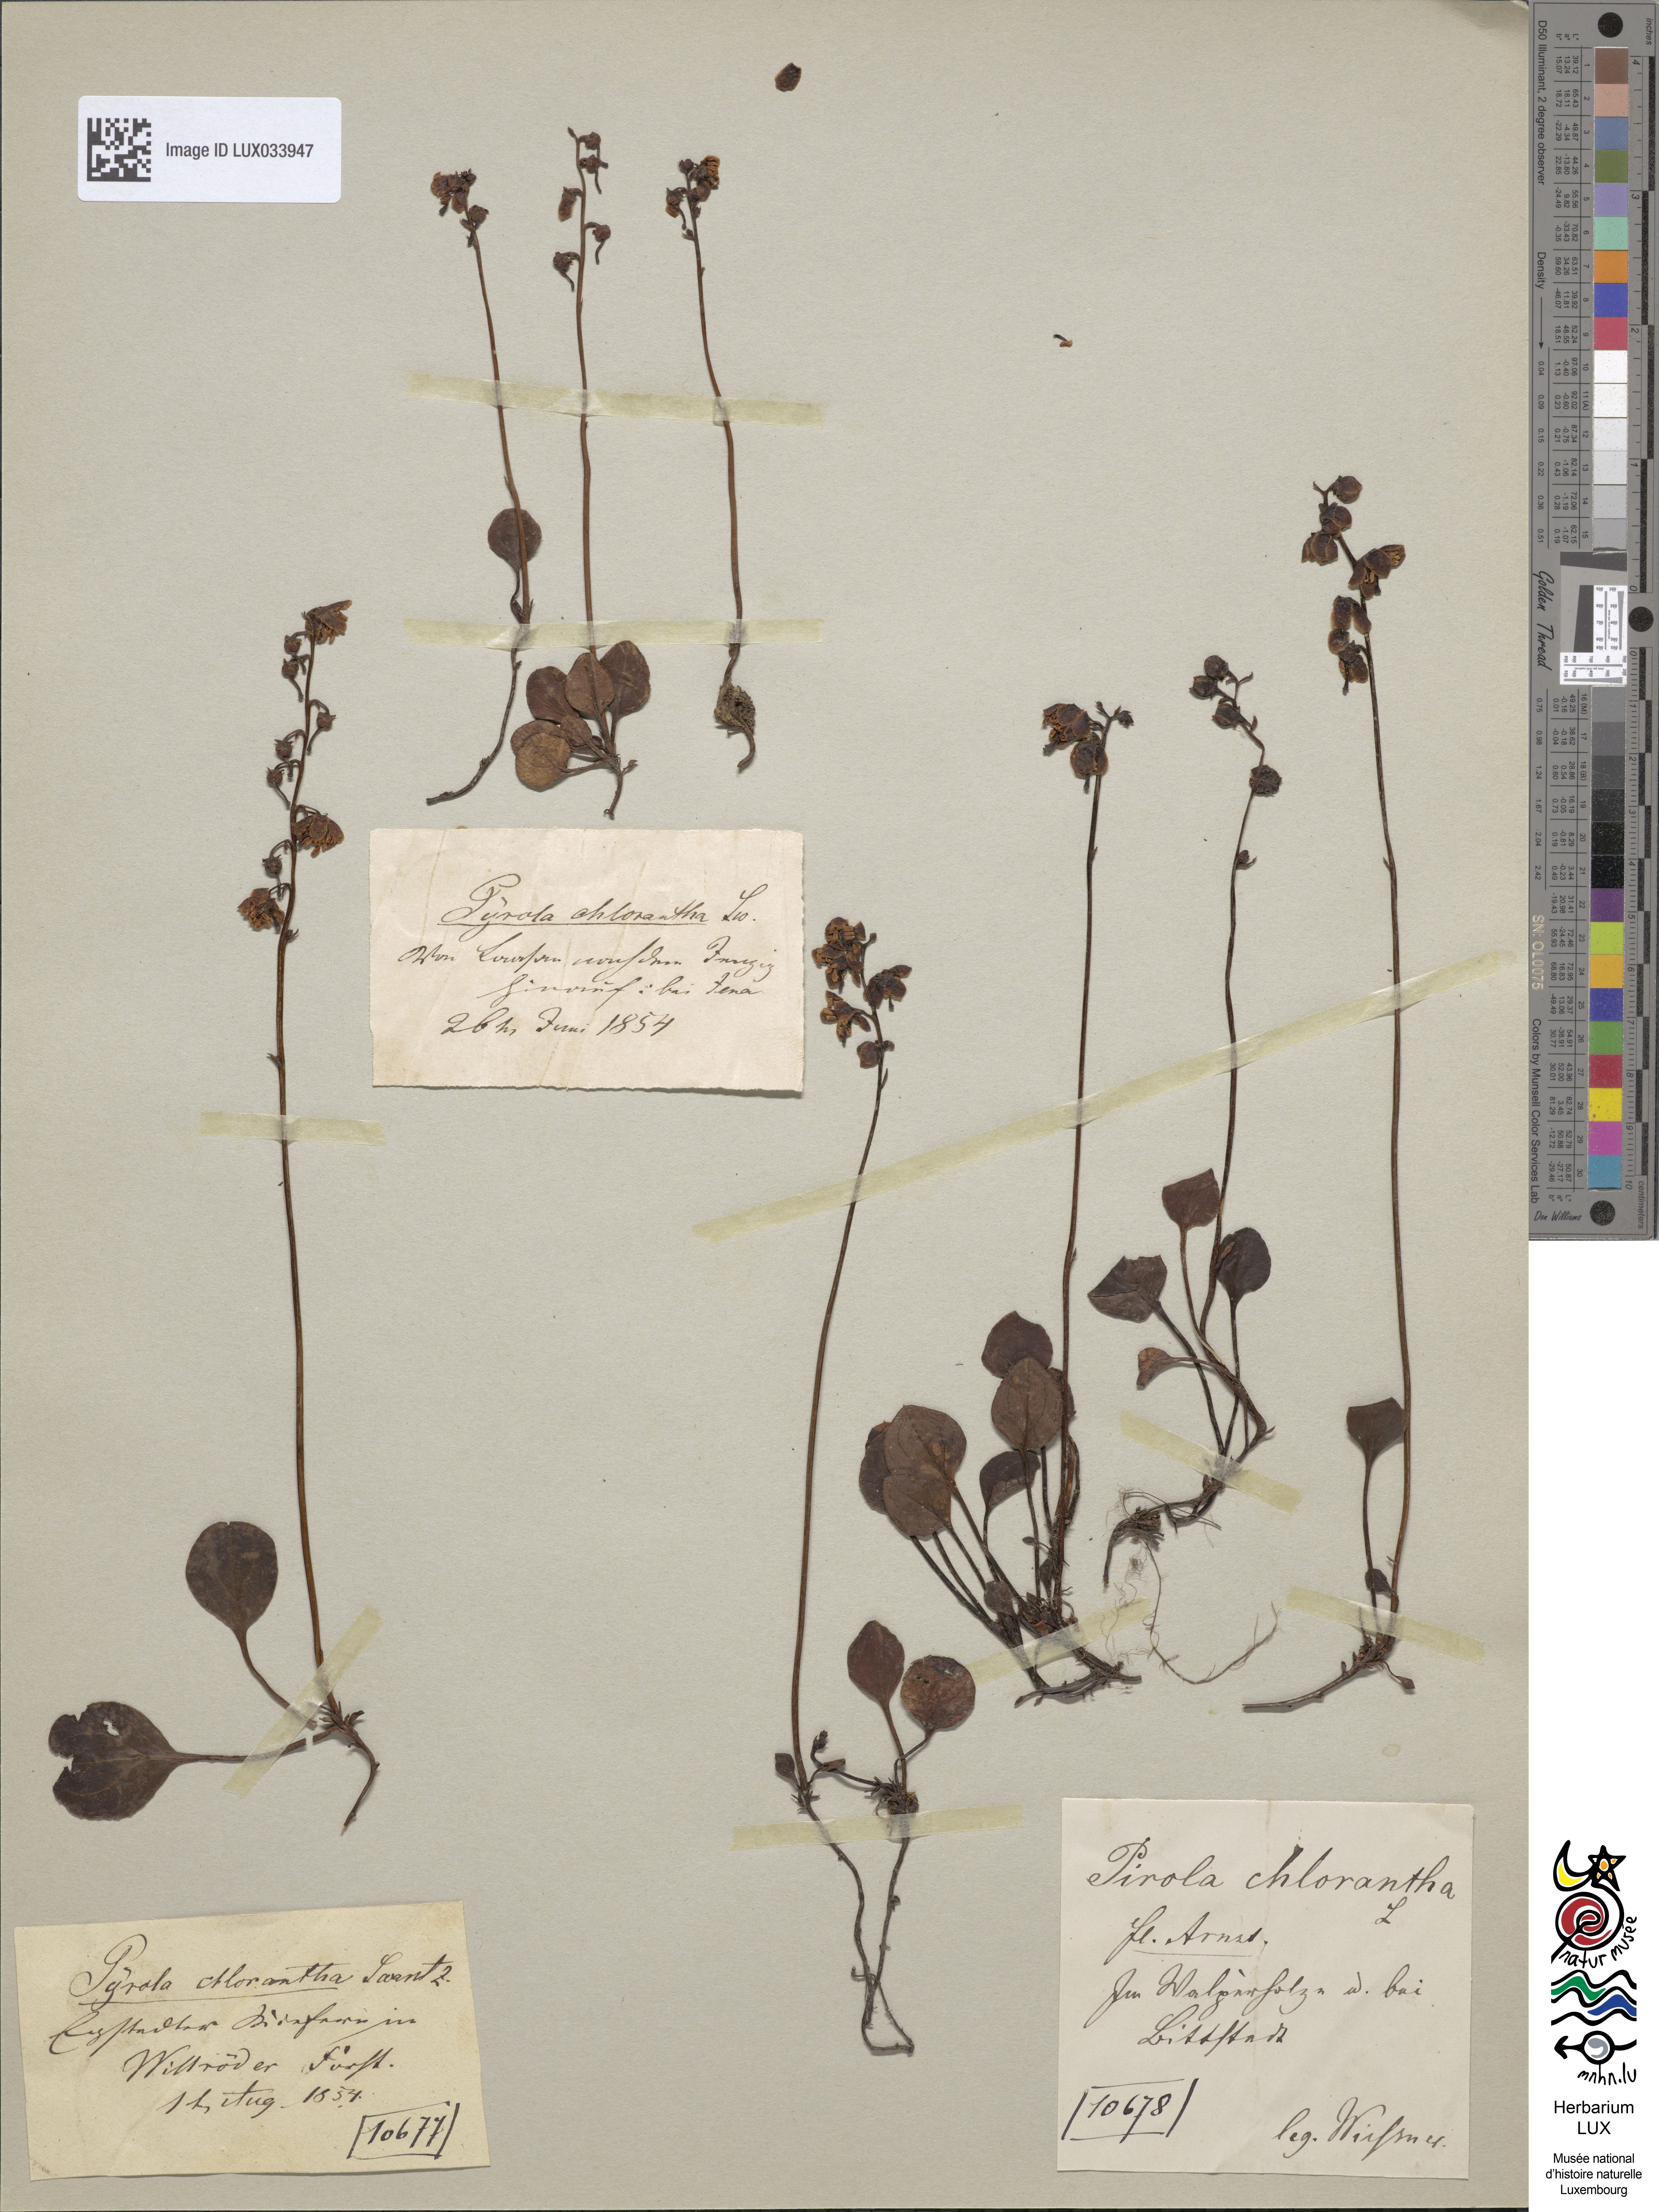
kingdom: Plantae
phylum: Tracheophyta
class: Magnoliopsida
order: Ericales
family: Ericaceae
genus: Pyrola
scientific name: Pyrola chlorantha
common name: Green wintergreen
